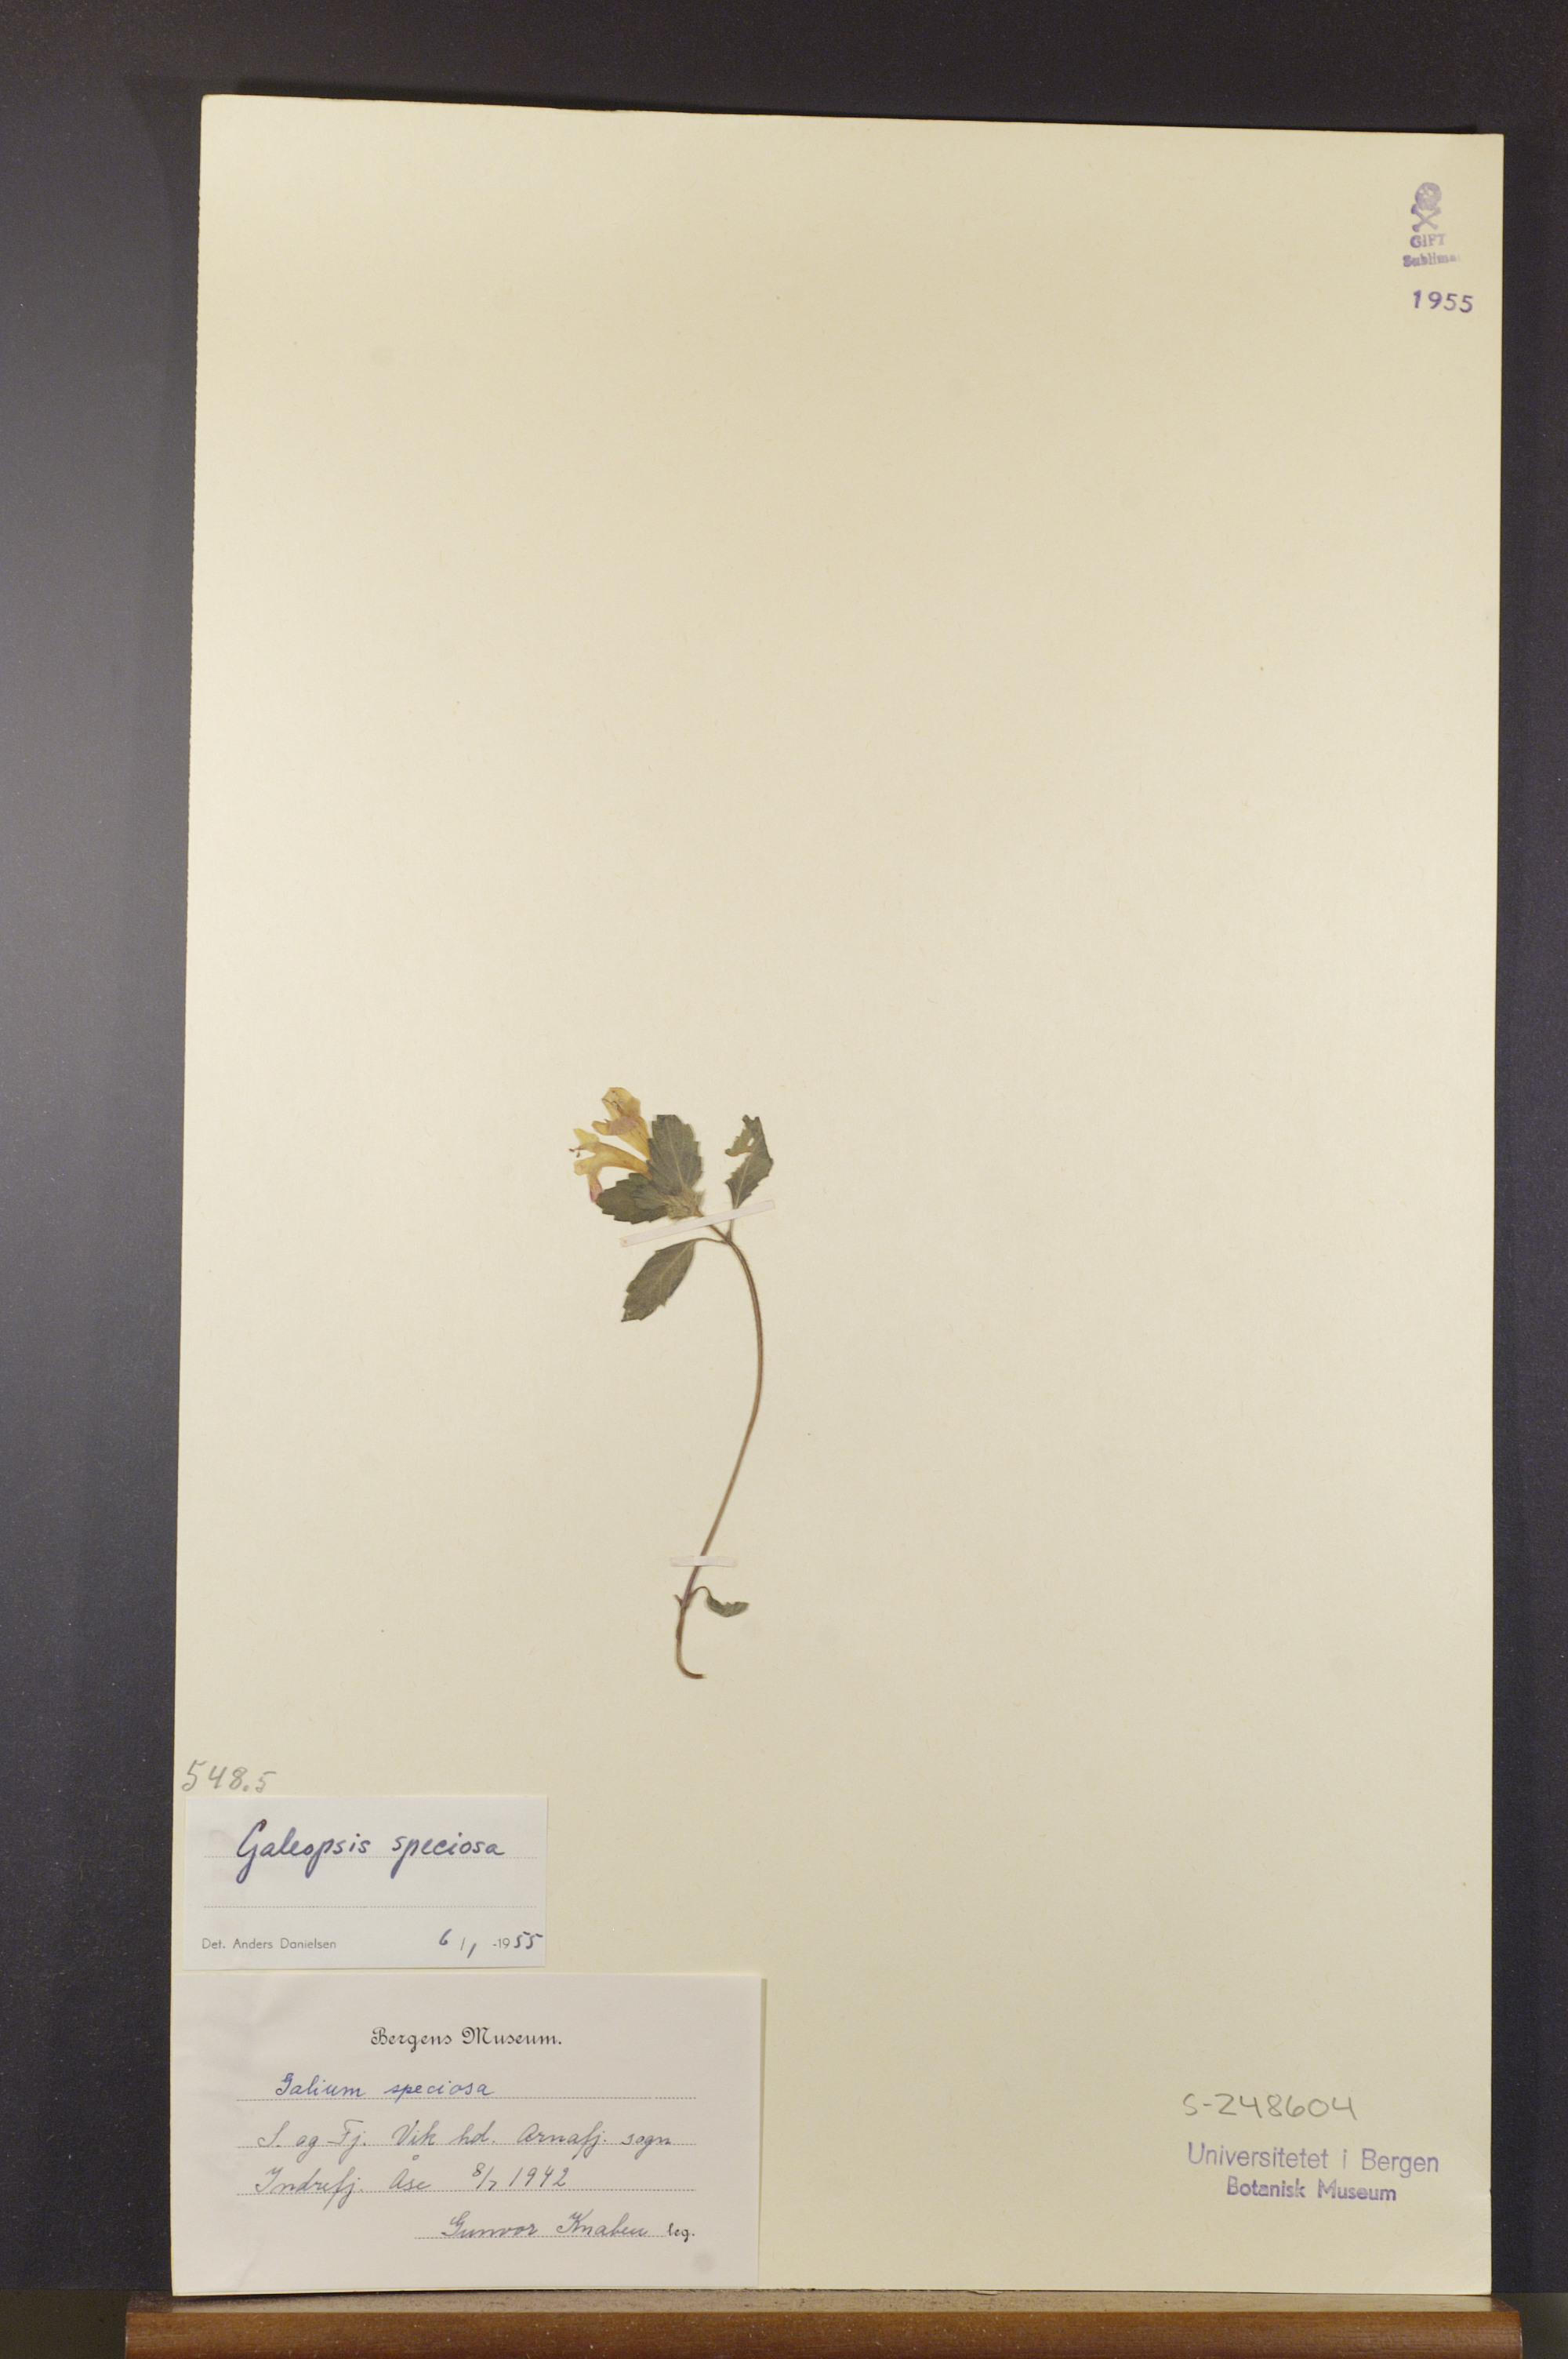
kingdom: Plantae
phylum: Tracheophyta
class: Magnoliopsida
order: Lamiales
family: Lamiaceae
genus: Galeopsis
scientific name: Galeopsis speciosa
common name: Large-flowered hemp-nettle
